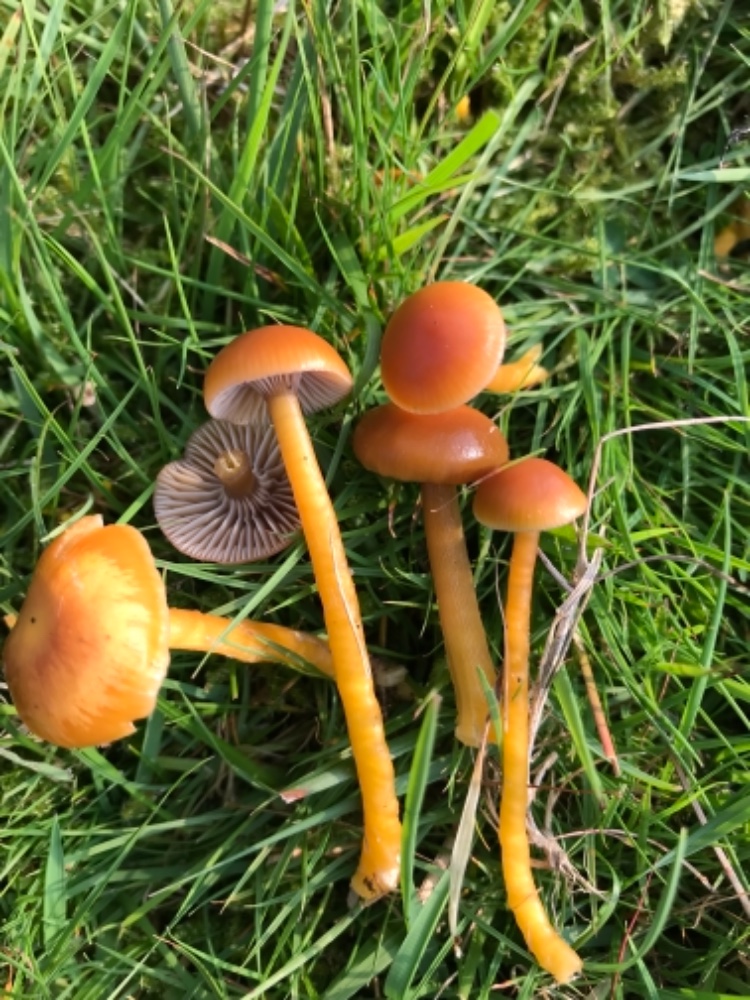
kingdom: Fungi
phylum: Basidiomycota
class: Agaricomycetes
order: Agaricales
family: Hygrophoraceae
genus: Gliophorus
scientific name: Gliophorus laetus
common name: brusk-vokshat
